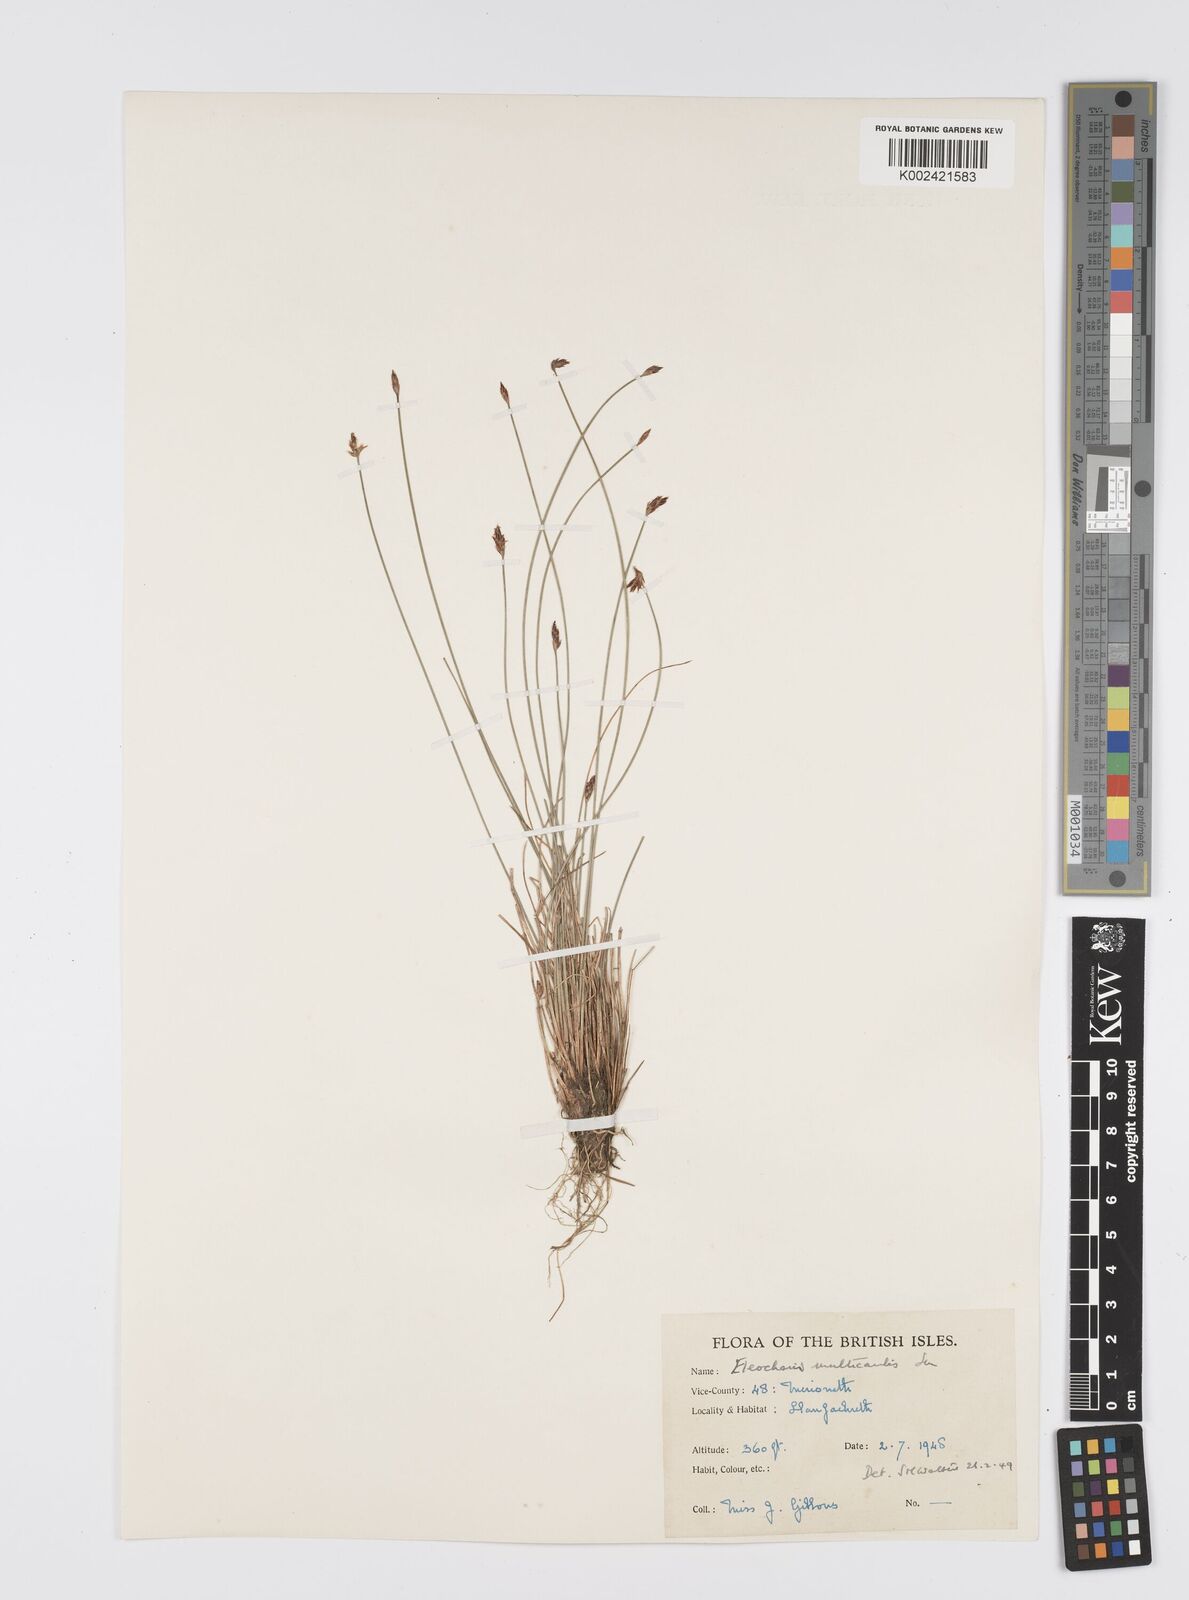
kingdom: Plantae
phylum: Tracheophyta
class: Liliopsida
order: Poales
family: Cyperaceae
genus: Eleocharis
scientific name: Eleocharis multicaulis
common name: Many-stalked spike-rush
